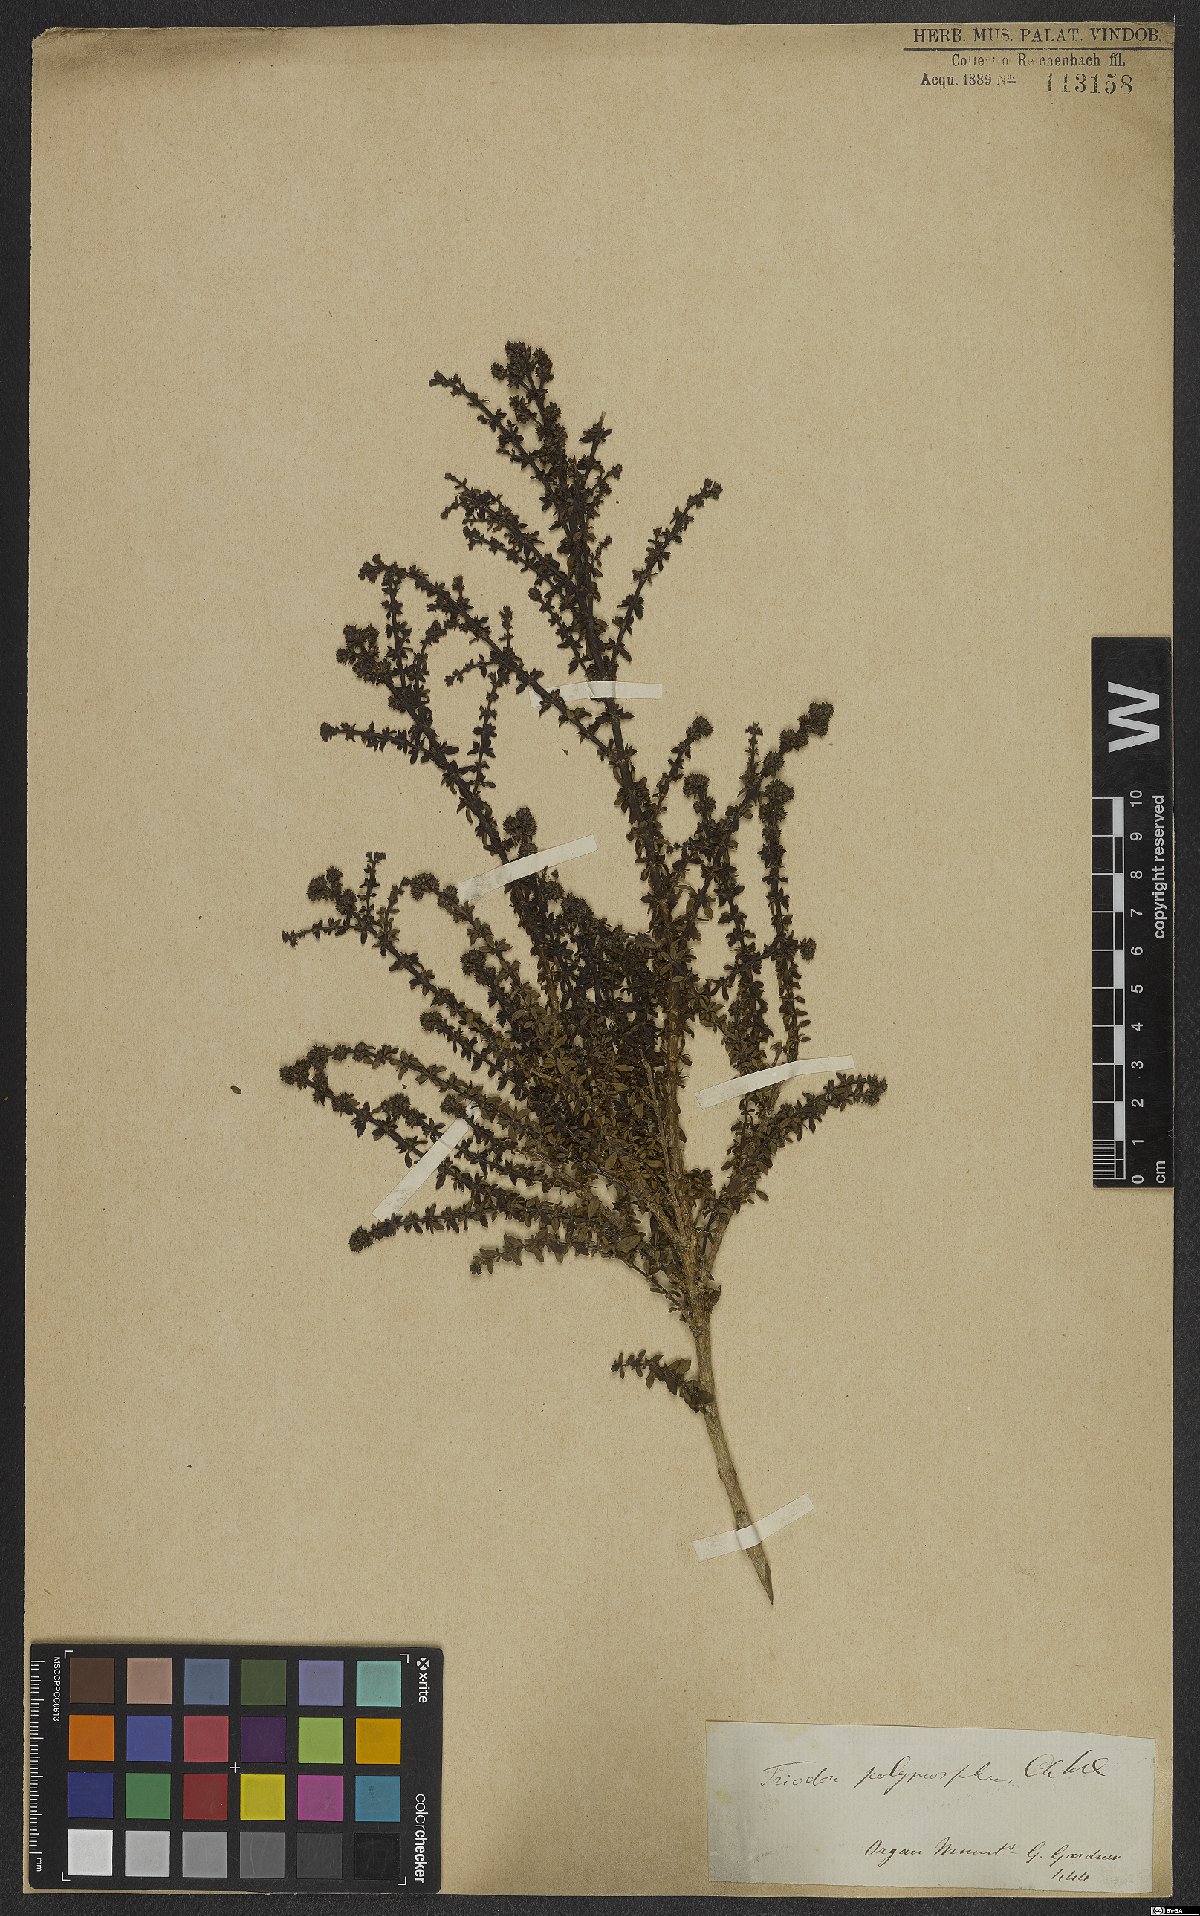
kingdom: Plantae
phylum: Tracheophyta
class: Magnoliopsida
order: Gentianales
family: Rubiaceae
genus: Galianthe
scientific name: Galianthe brasiliensis
